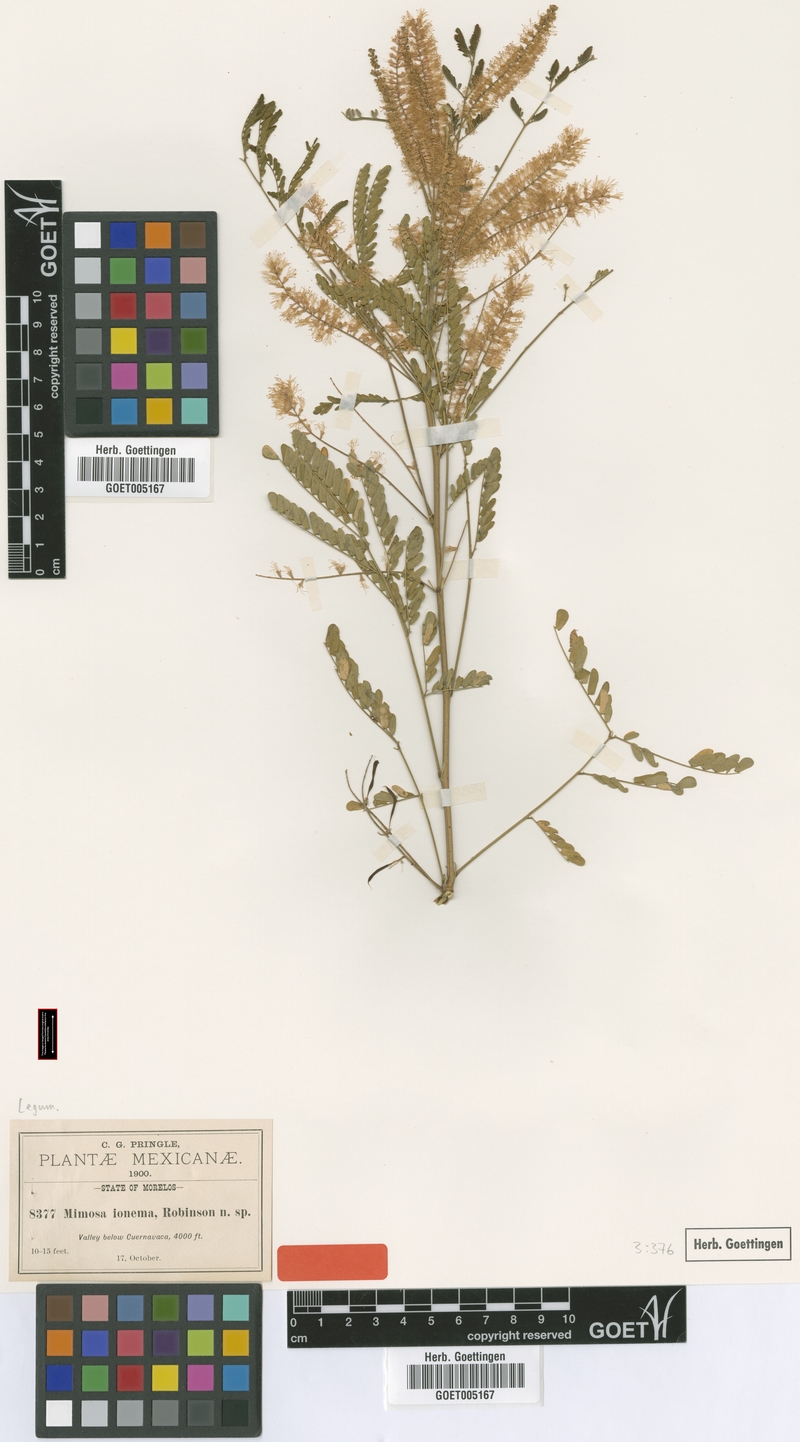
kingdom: Plantae
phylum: Tracheophyta
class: Magnoliopsida
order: Fabales
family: Fabaceae
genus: Mimosa
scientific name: Mimosa polyantha
